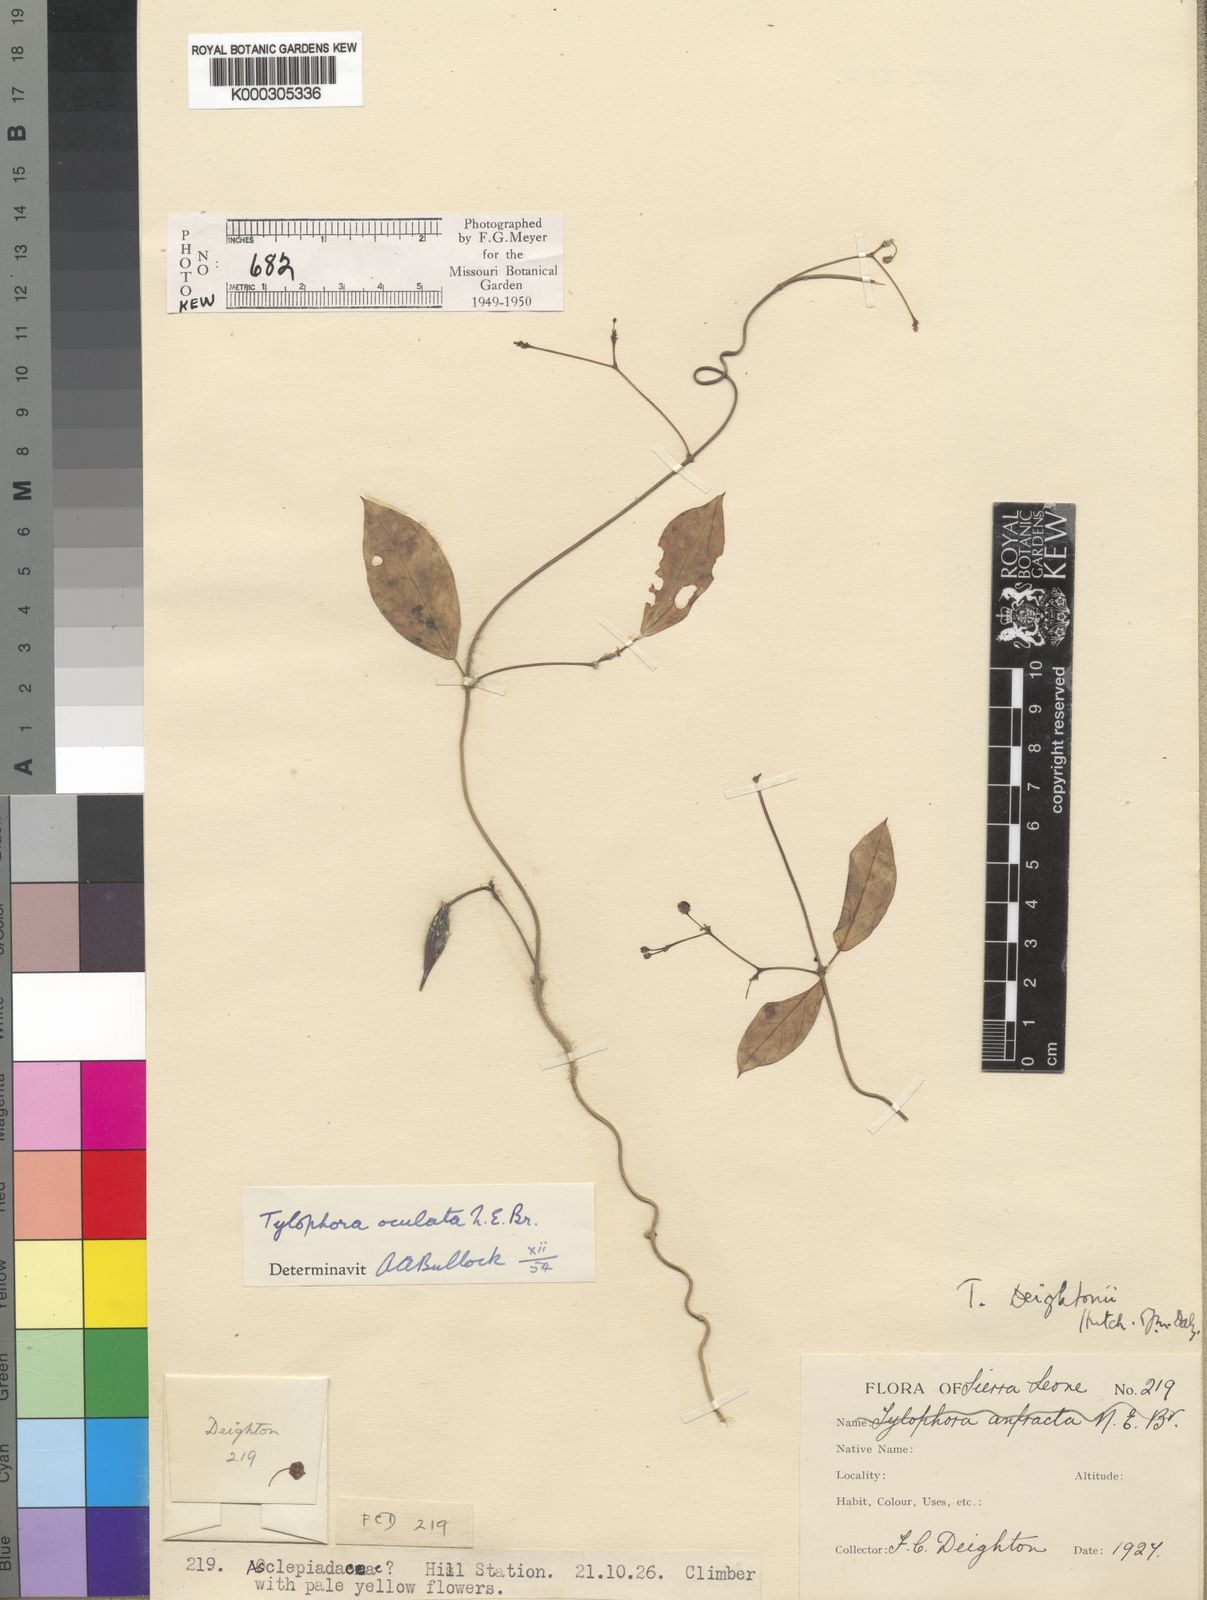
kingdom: Plantae
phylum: Tracheophyta
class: Magnoliopsida
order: Gentianales
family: Apocynaceae
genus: Vincetoxicum
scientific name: Vincetoxicum oculatum
